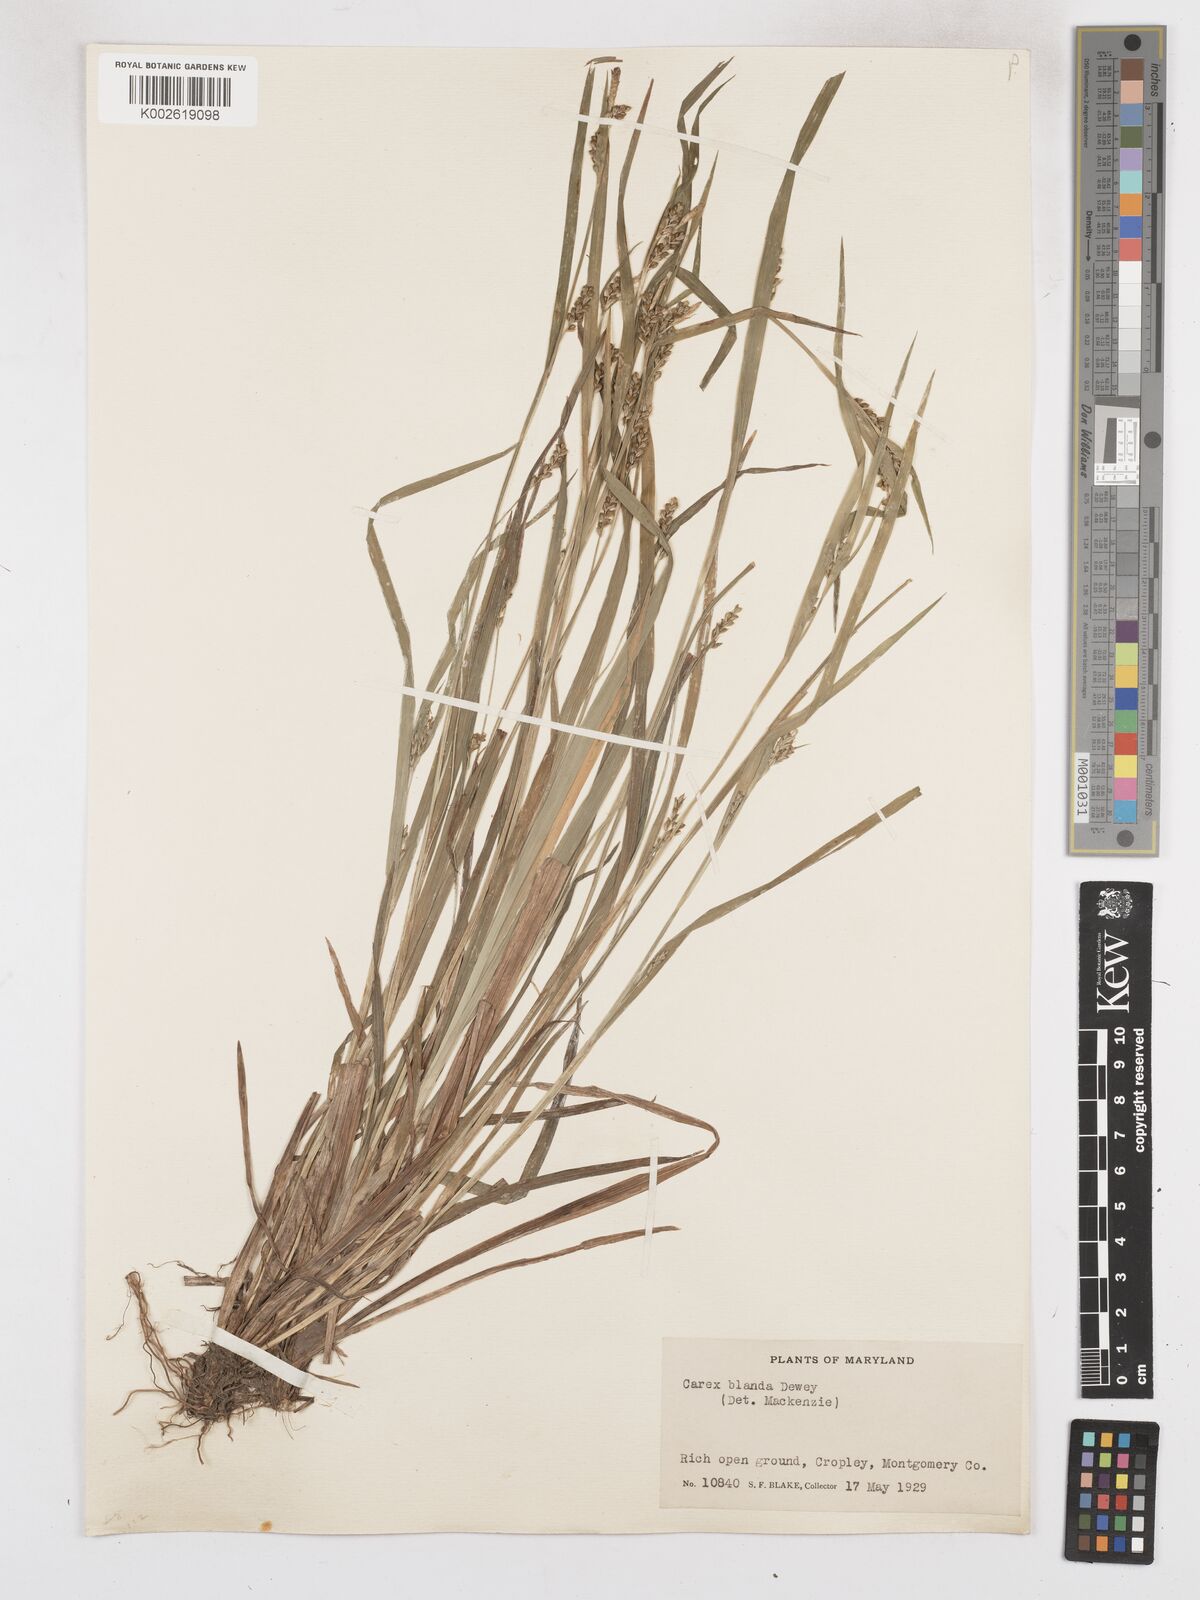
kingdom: Plantae
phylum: Tracheophyta
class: Liliopsida
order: Poales
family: Cyperaceae
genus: Carex
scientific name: Carex blanda
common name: Bland sedge
